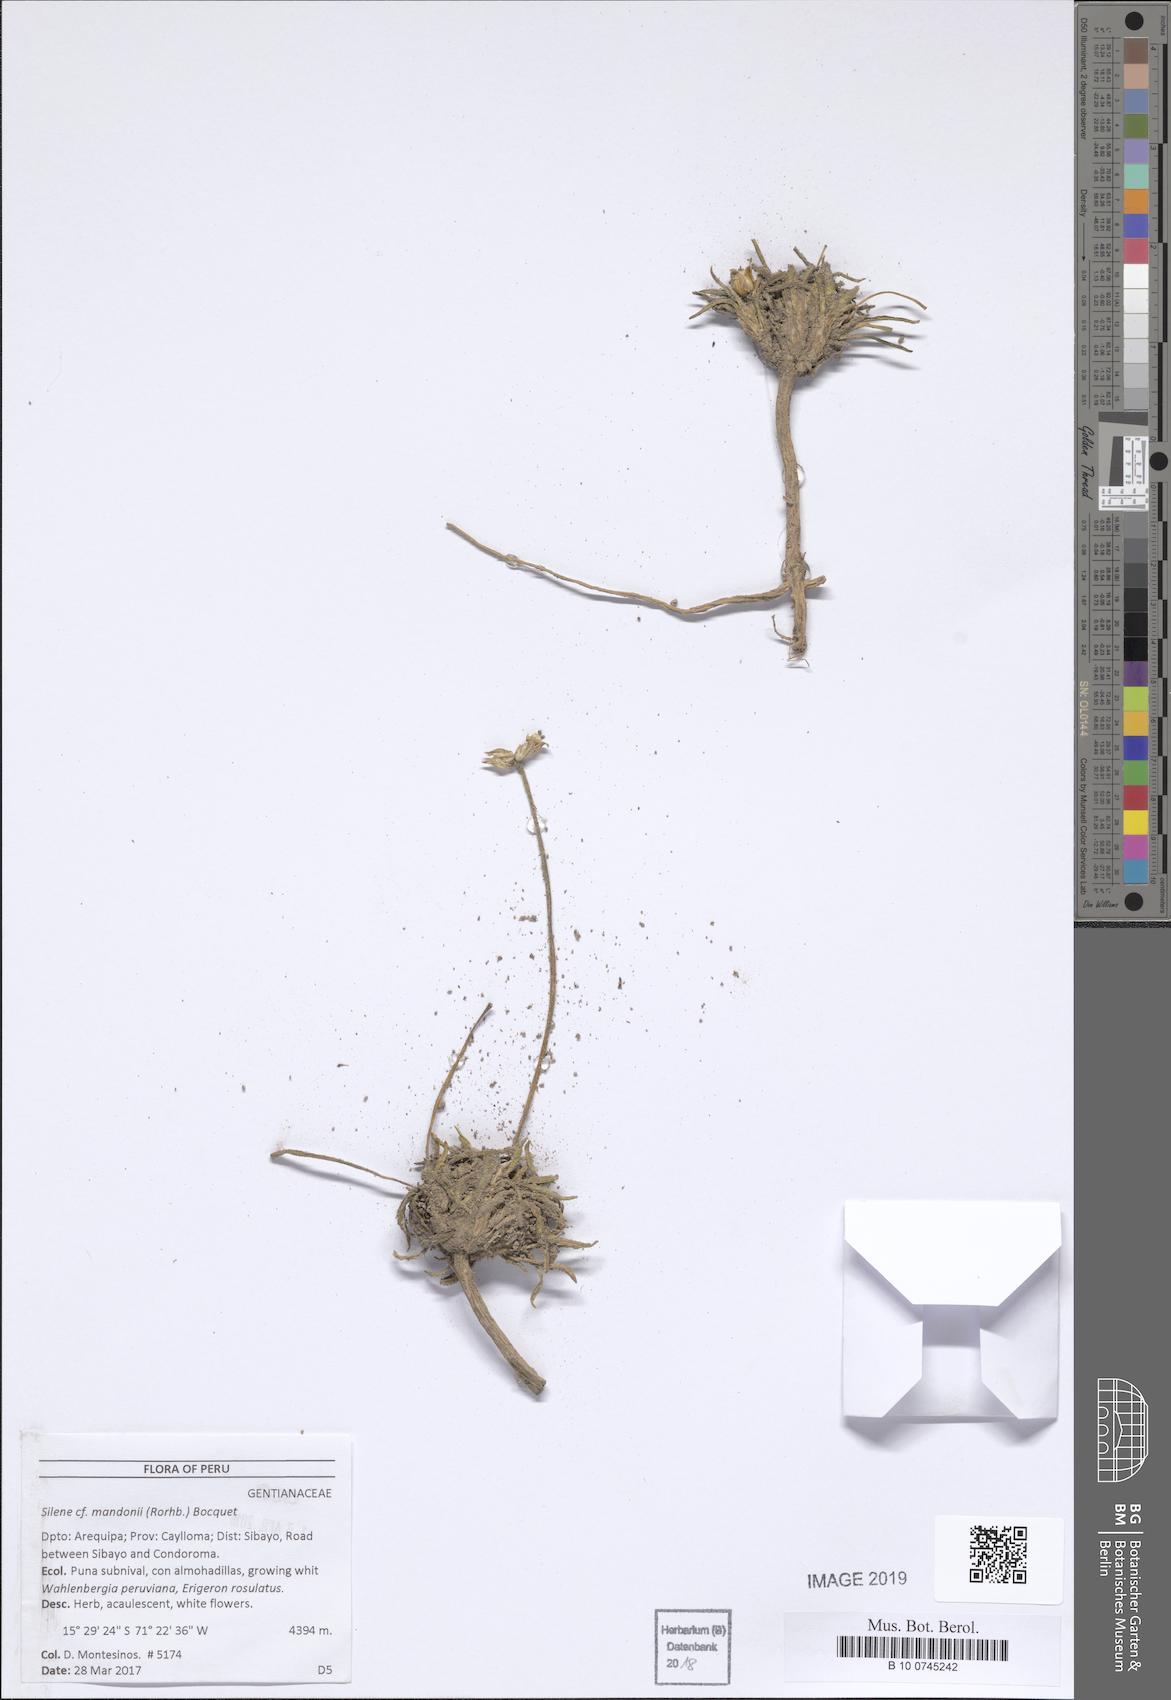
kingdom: Plantae
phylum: Tracheophyta
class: Magnoliopsida
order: Caryophyllales
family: Caryophyllaceae
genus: Silene
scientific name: Silene mandonii
